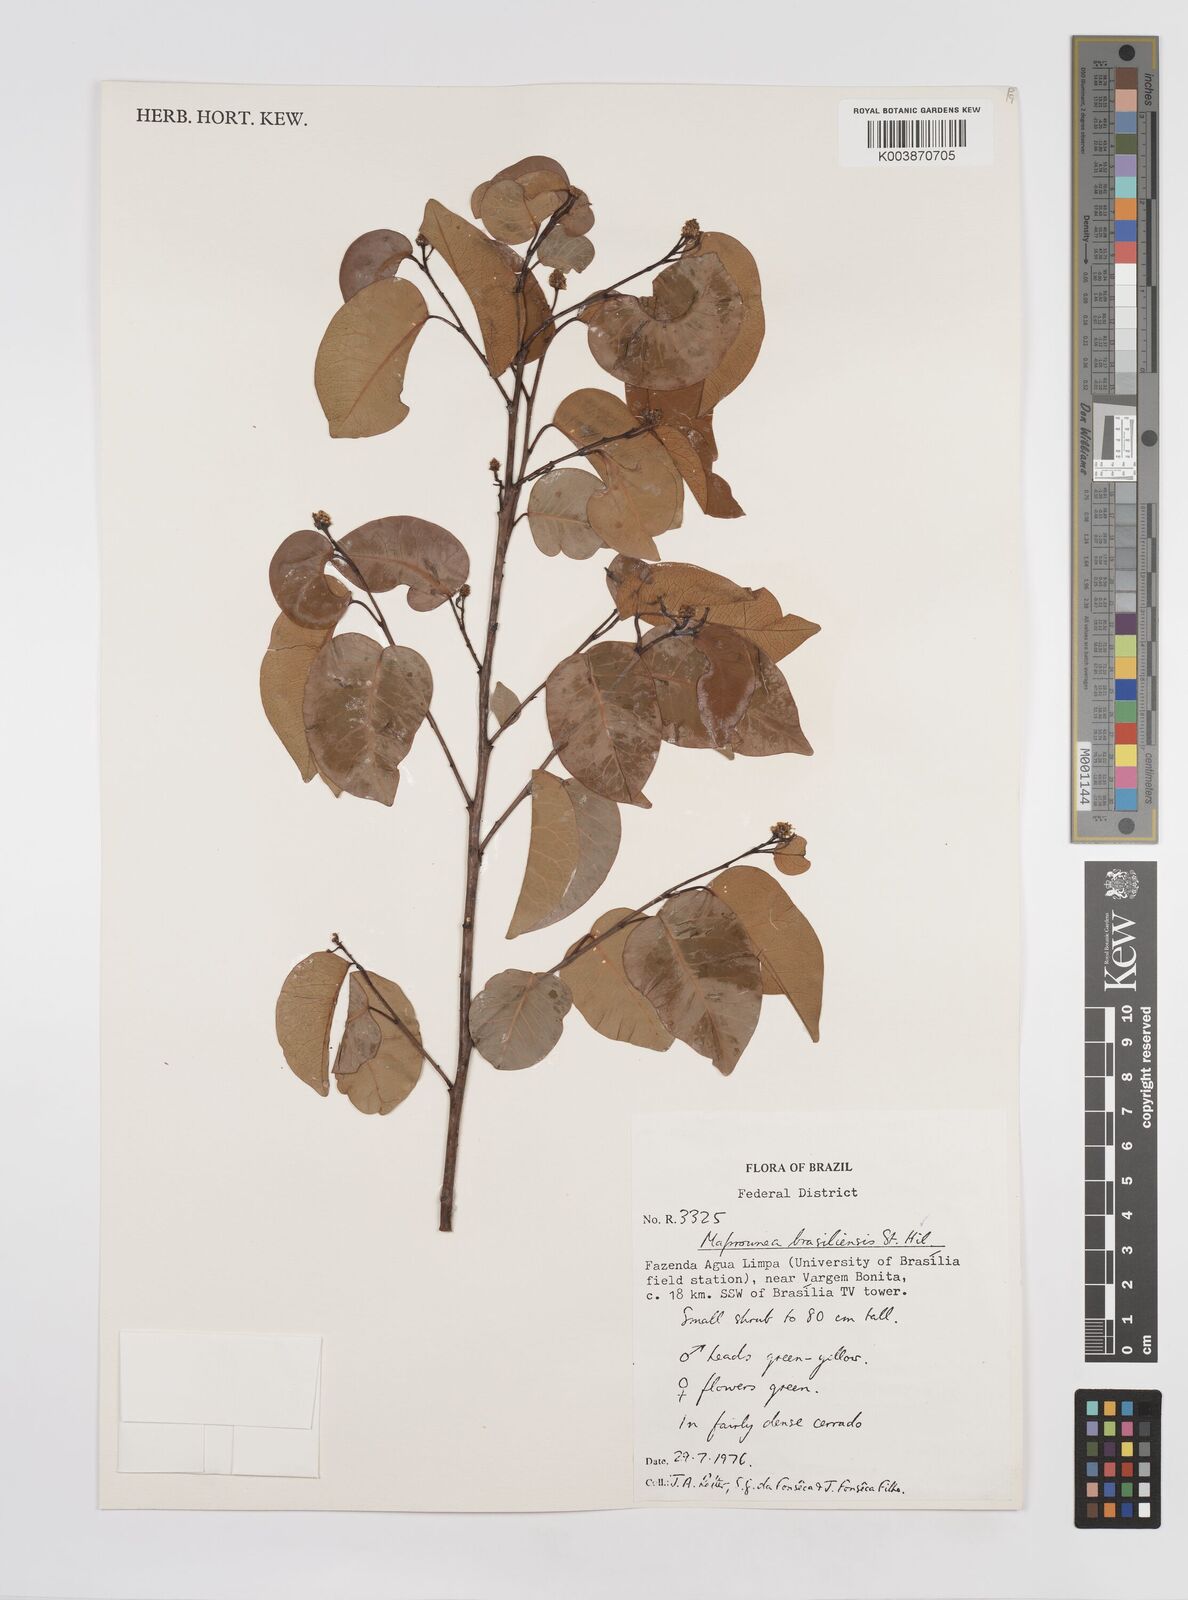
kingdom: Plantae
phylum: Tracheophyta
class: Magnoliopsida
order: Malpighiales
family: Euphorbiaceae
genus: Maprounea
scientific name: Maprounea brasiliensis
